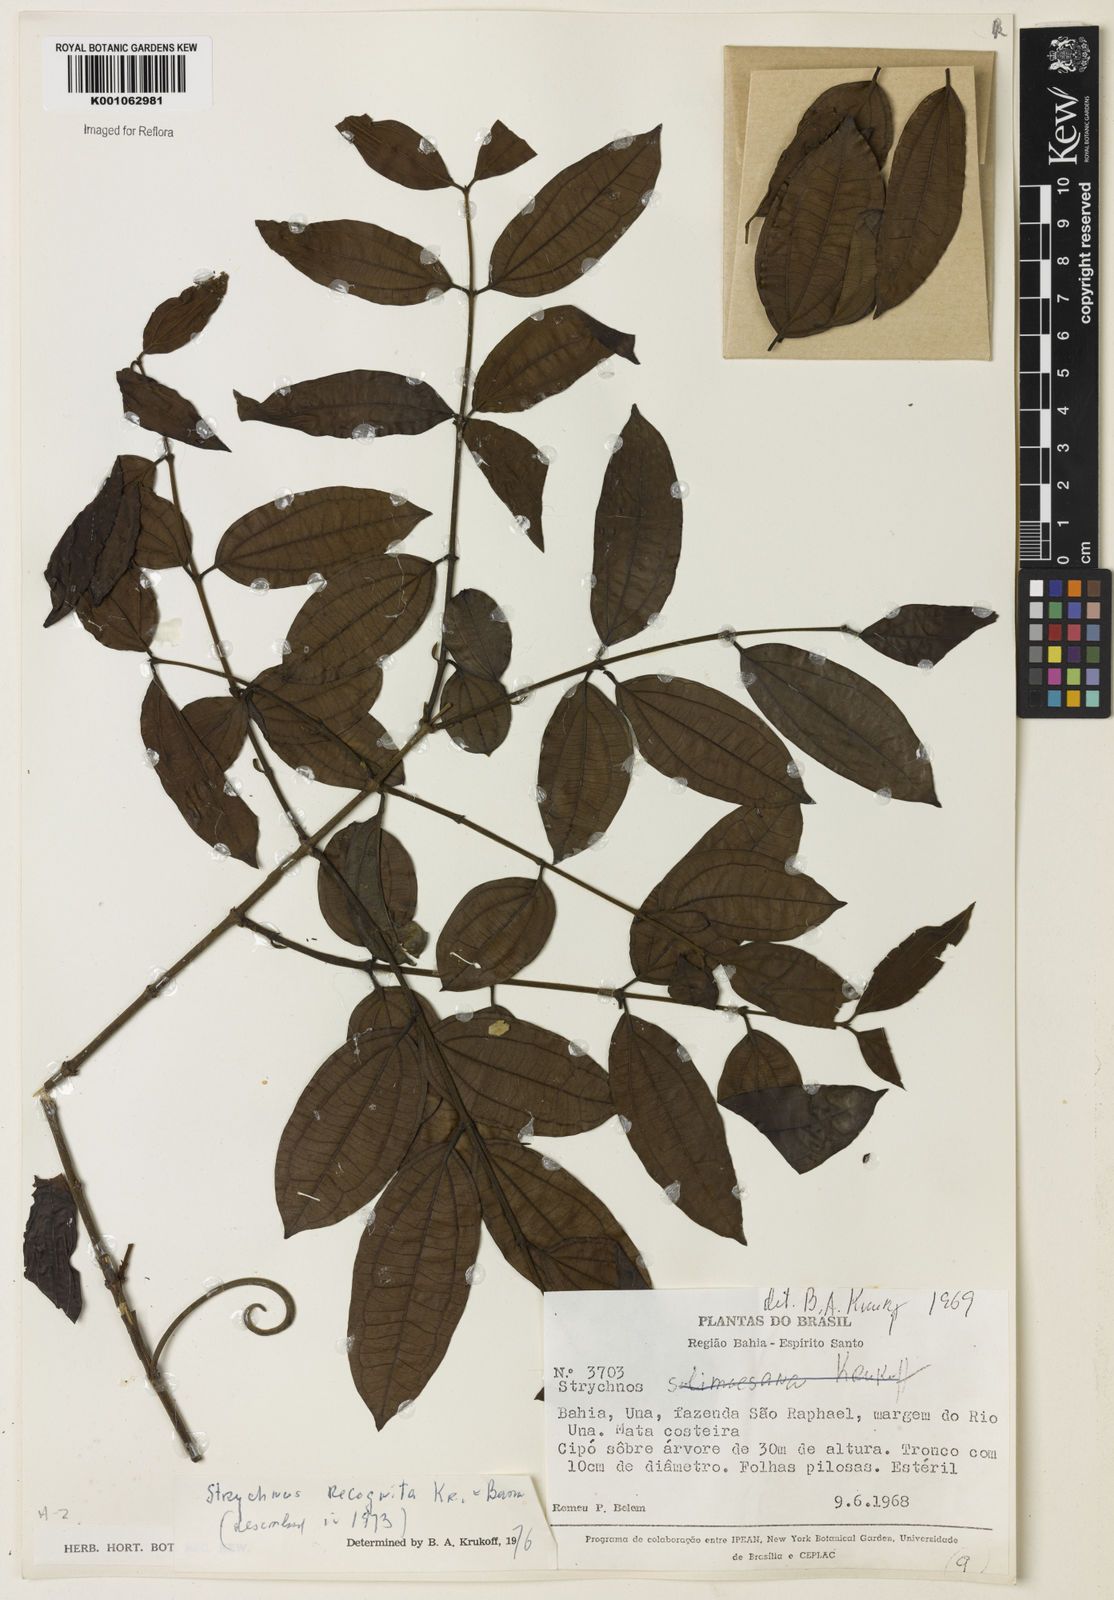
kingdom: Plantae
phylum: Tracheophyta
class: Magnoliopsida
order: Gentianales
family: Loganiaceae
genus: Strychnos
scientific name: Strychnos recognita
